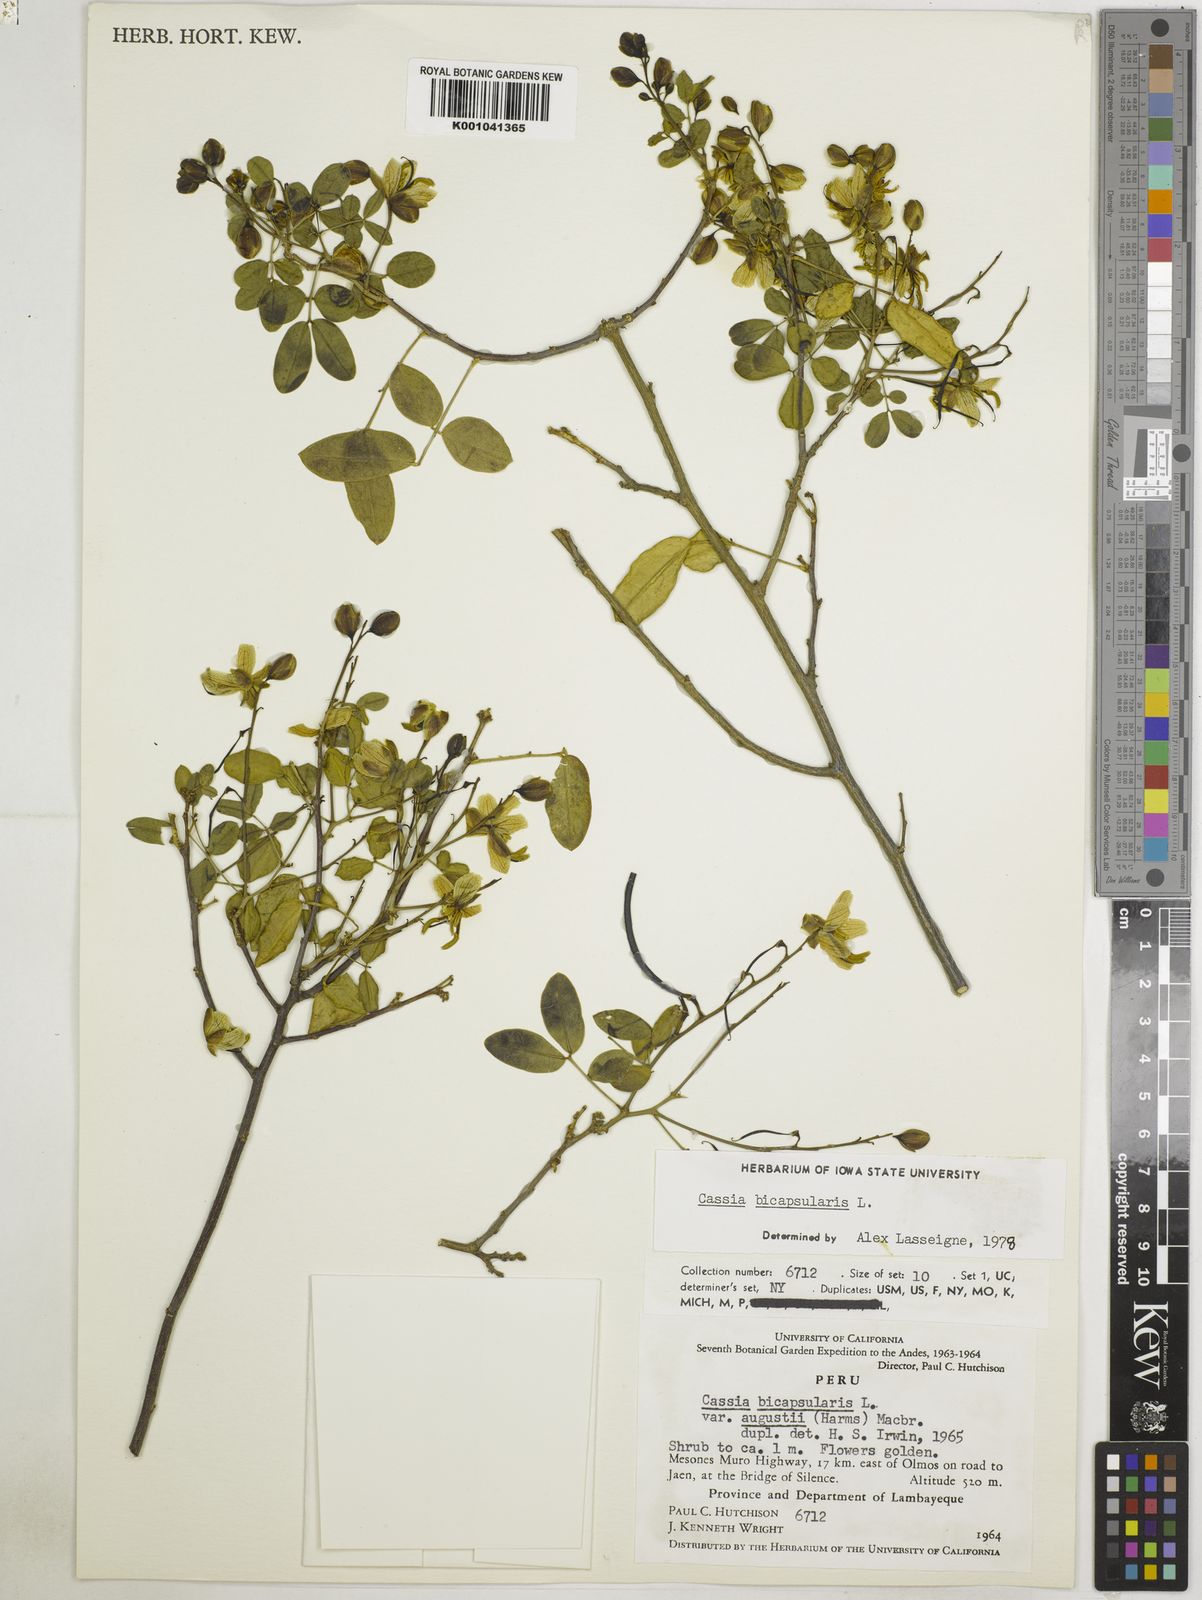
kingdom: Plantae
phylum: Tracheophyta
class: Magnoliopsida
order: Fabales
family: Fabaceae
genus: Senna
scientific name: Senna bicapsularis
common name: Christmasbush
